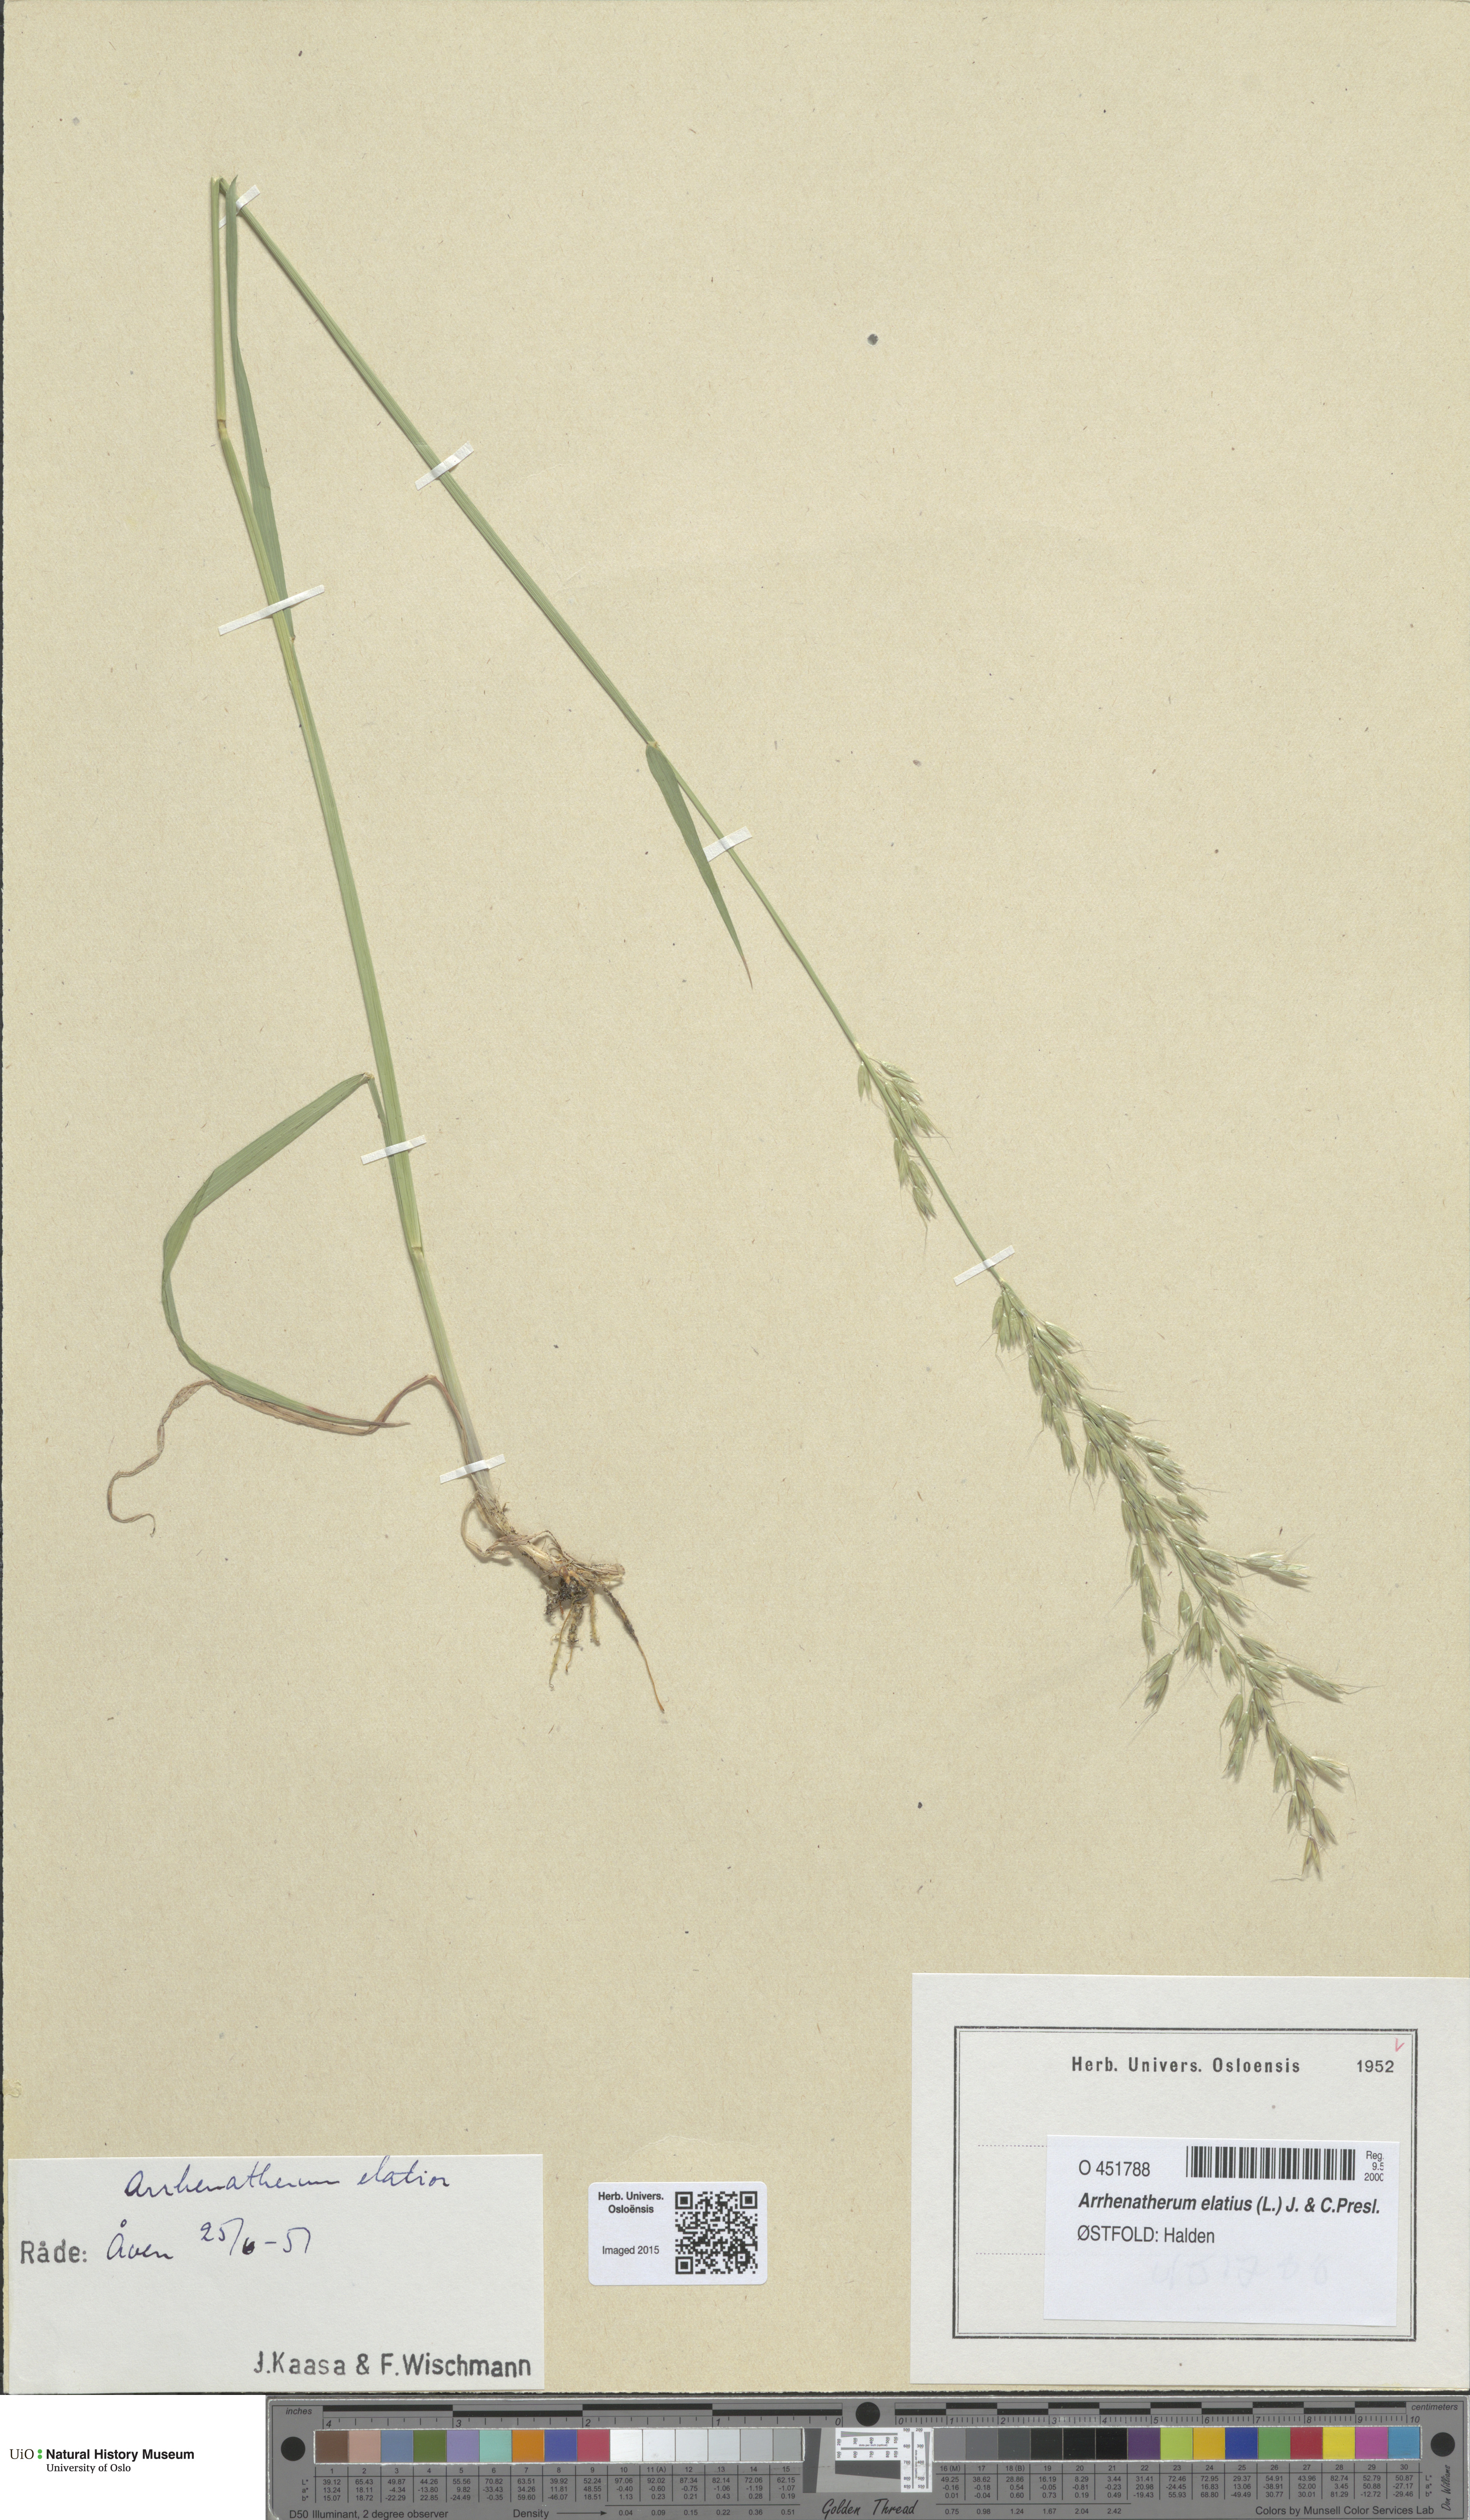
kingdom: Plantae
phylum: Tracheophyta
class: Liliopsida
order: Poales
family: Poaceae
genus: Arrhenatherum
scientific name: Arrhenatherum elatius
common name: Tall oatgrass
